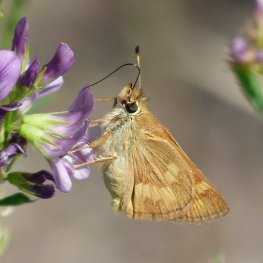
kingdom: Animalia
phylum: Arthropoda
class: Insecta
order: Lepidoptera
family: Hesperiidae
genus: Ochlodes
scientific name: Ochlodes sylvanoides
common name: Woodland Skipper
